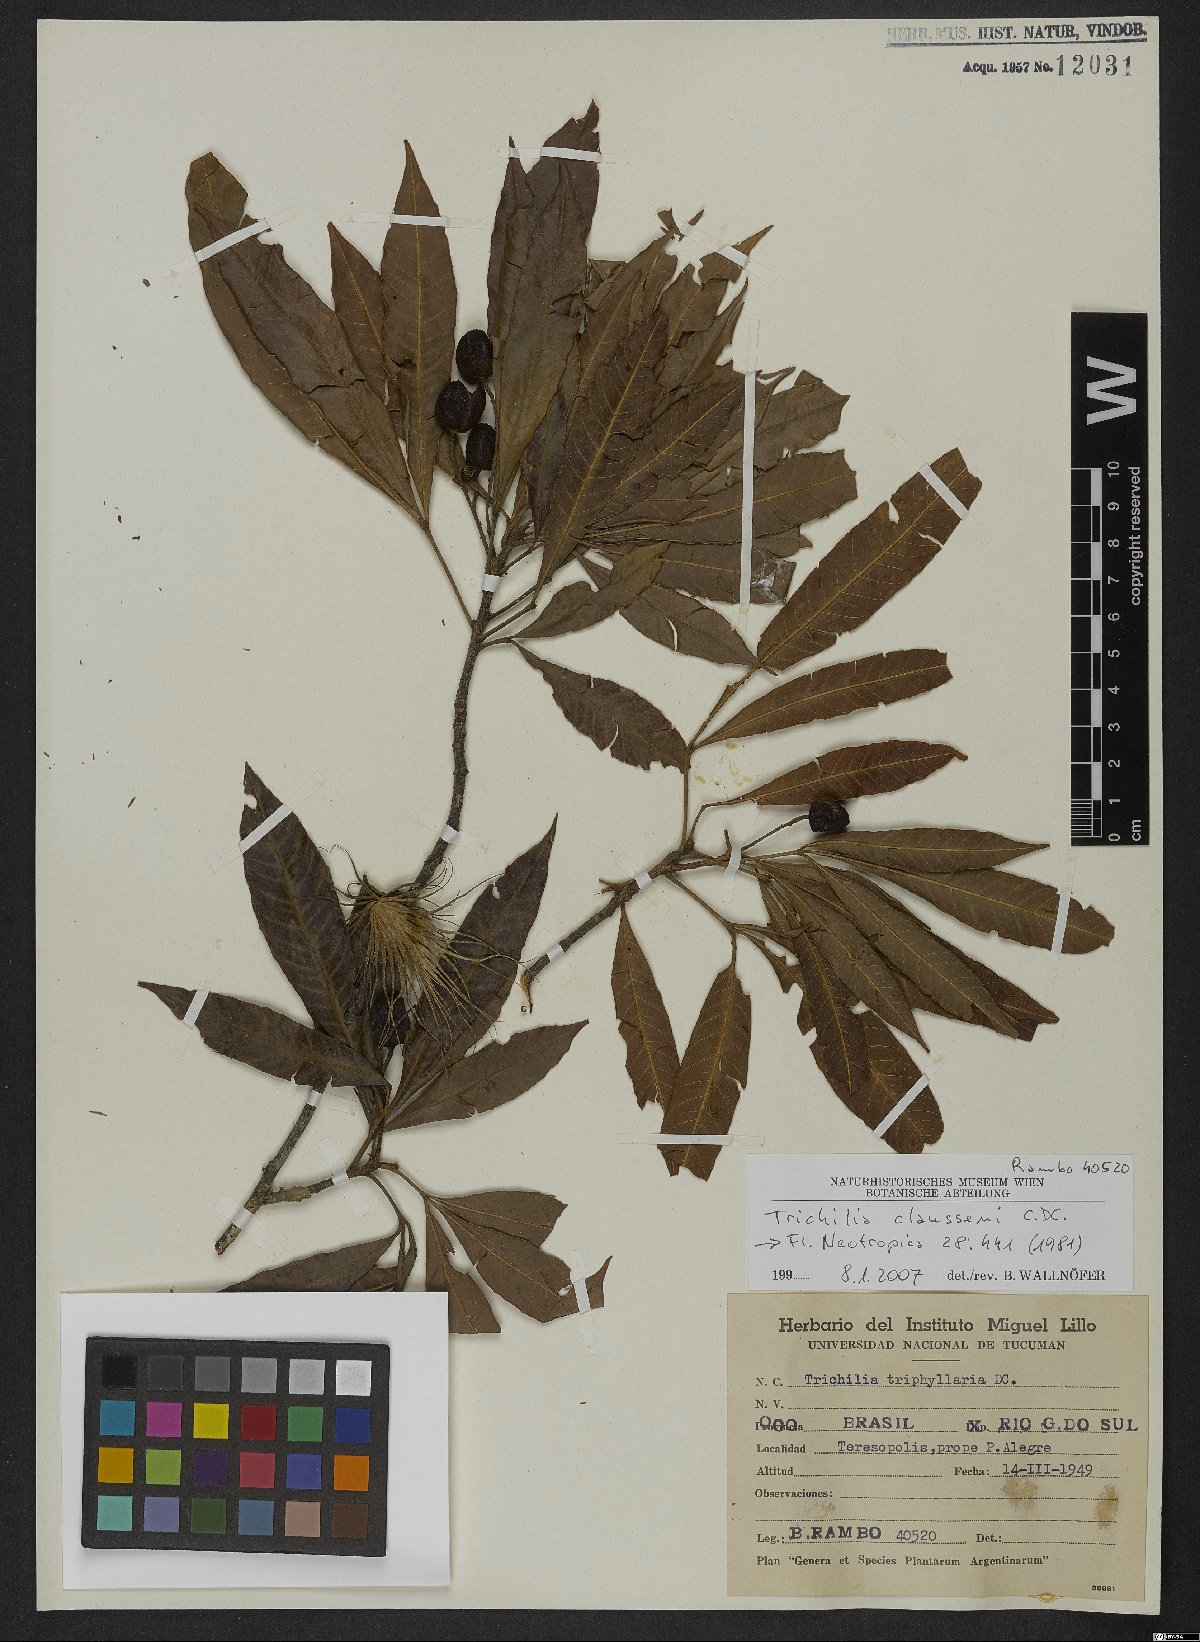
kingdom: Plantae
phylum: Tracheophyta
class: Magnoliopsida
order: Sapindales
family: Meliaceae
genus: Trichilia
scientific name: Trichilia claussenii
